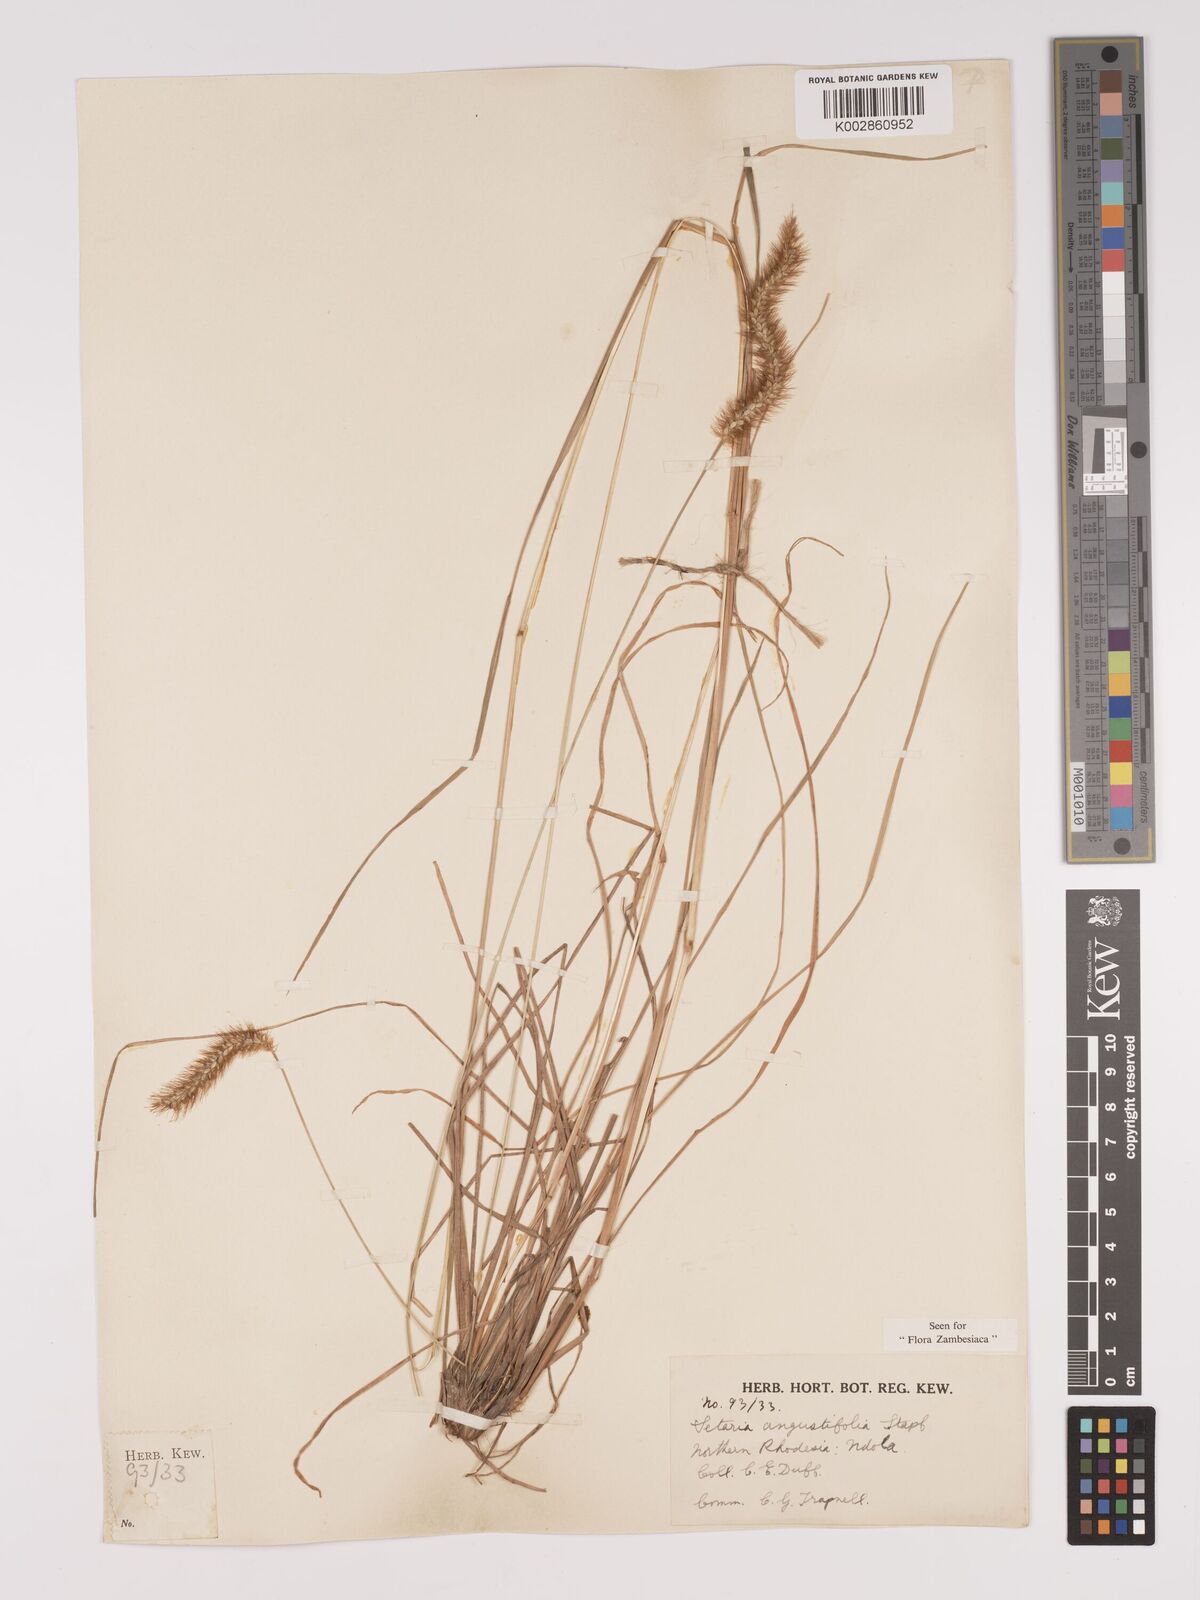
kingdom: Plantae
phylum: Tracheophyta
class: Liliopsida
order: Poales
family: Poaceae
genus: Setaria
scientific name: Setaria
